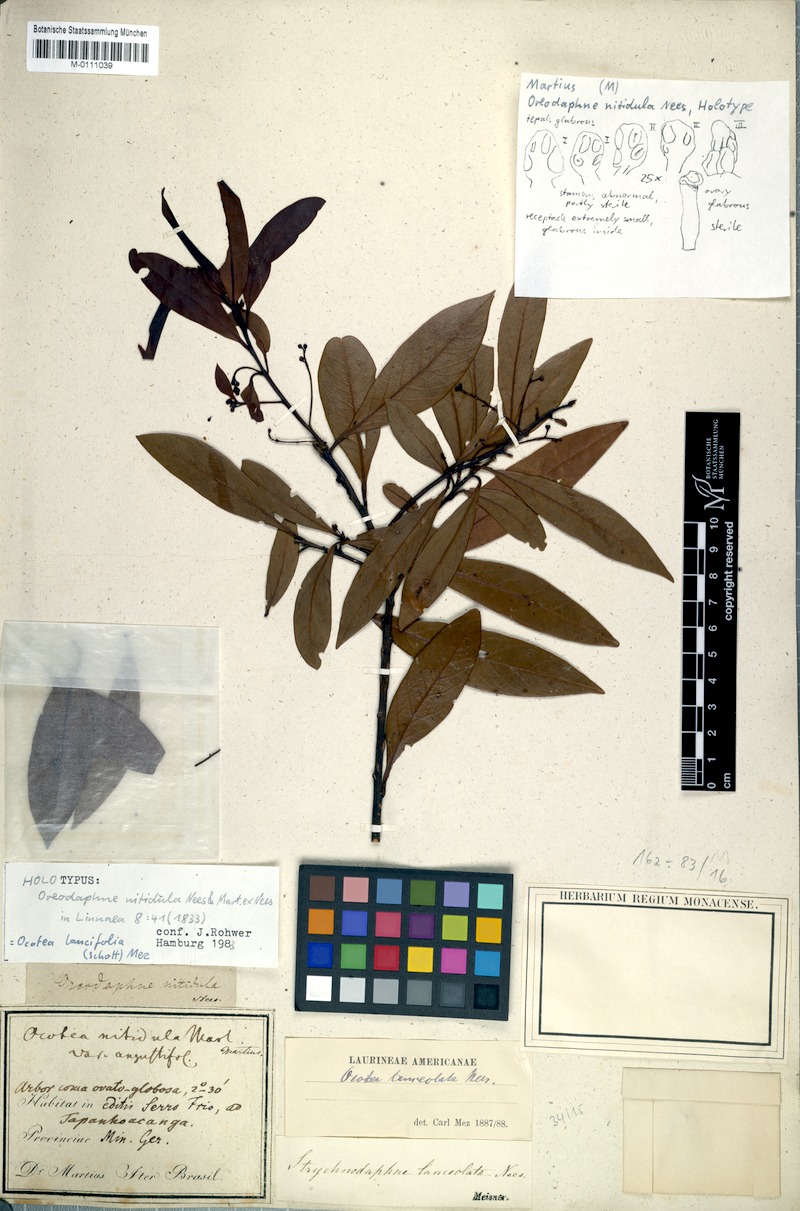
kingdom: Plantae
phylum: Tracheophyta
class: Magnoliopsida
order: Laurales
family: Lauraceae
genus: Ocotea
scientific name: Ocotea lancifolia
